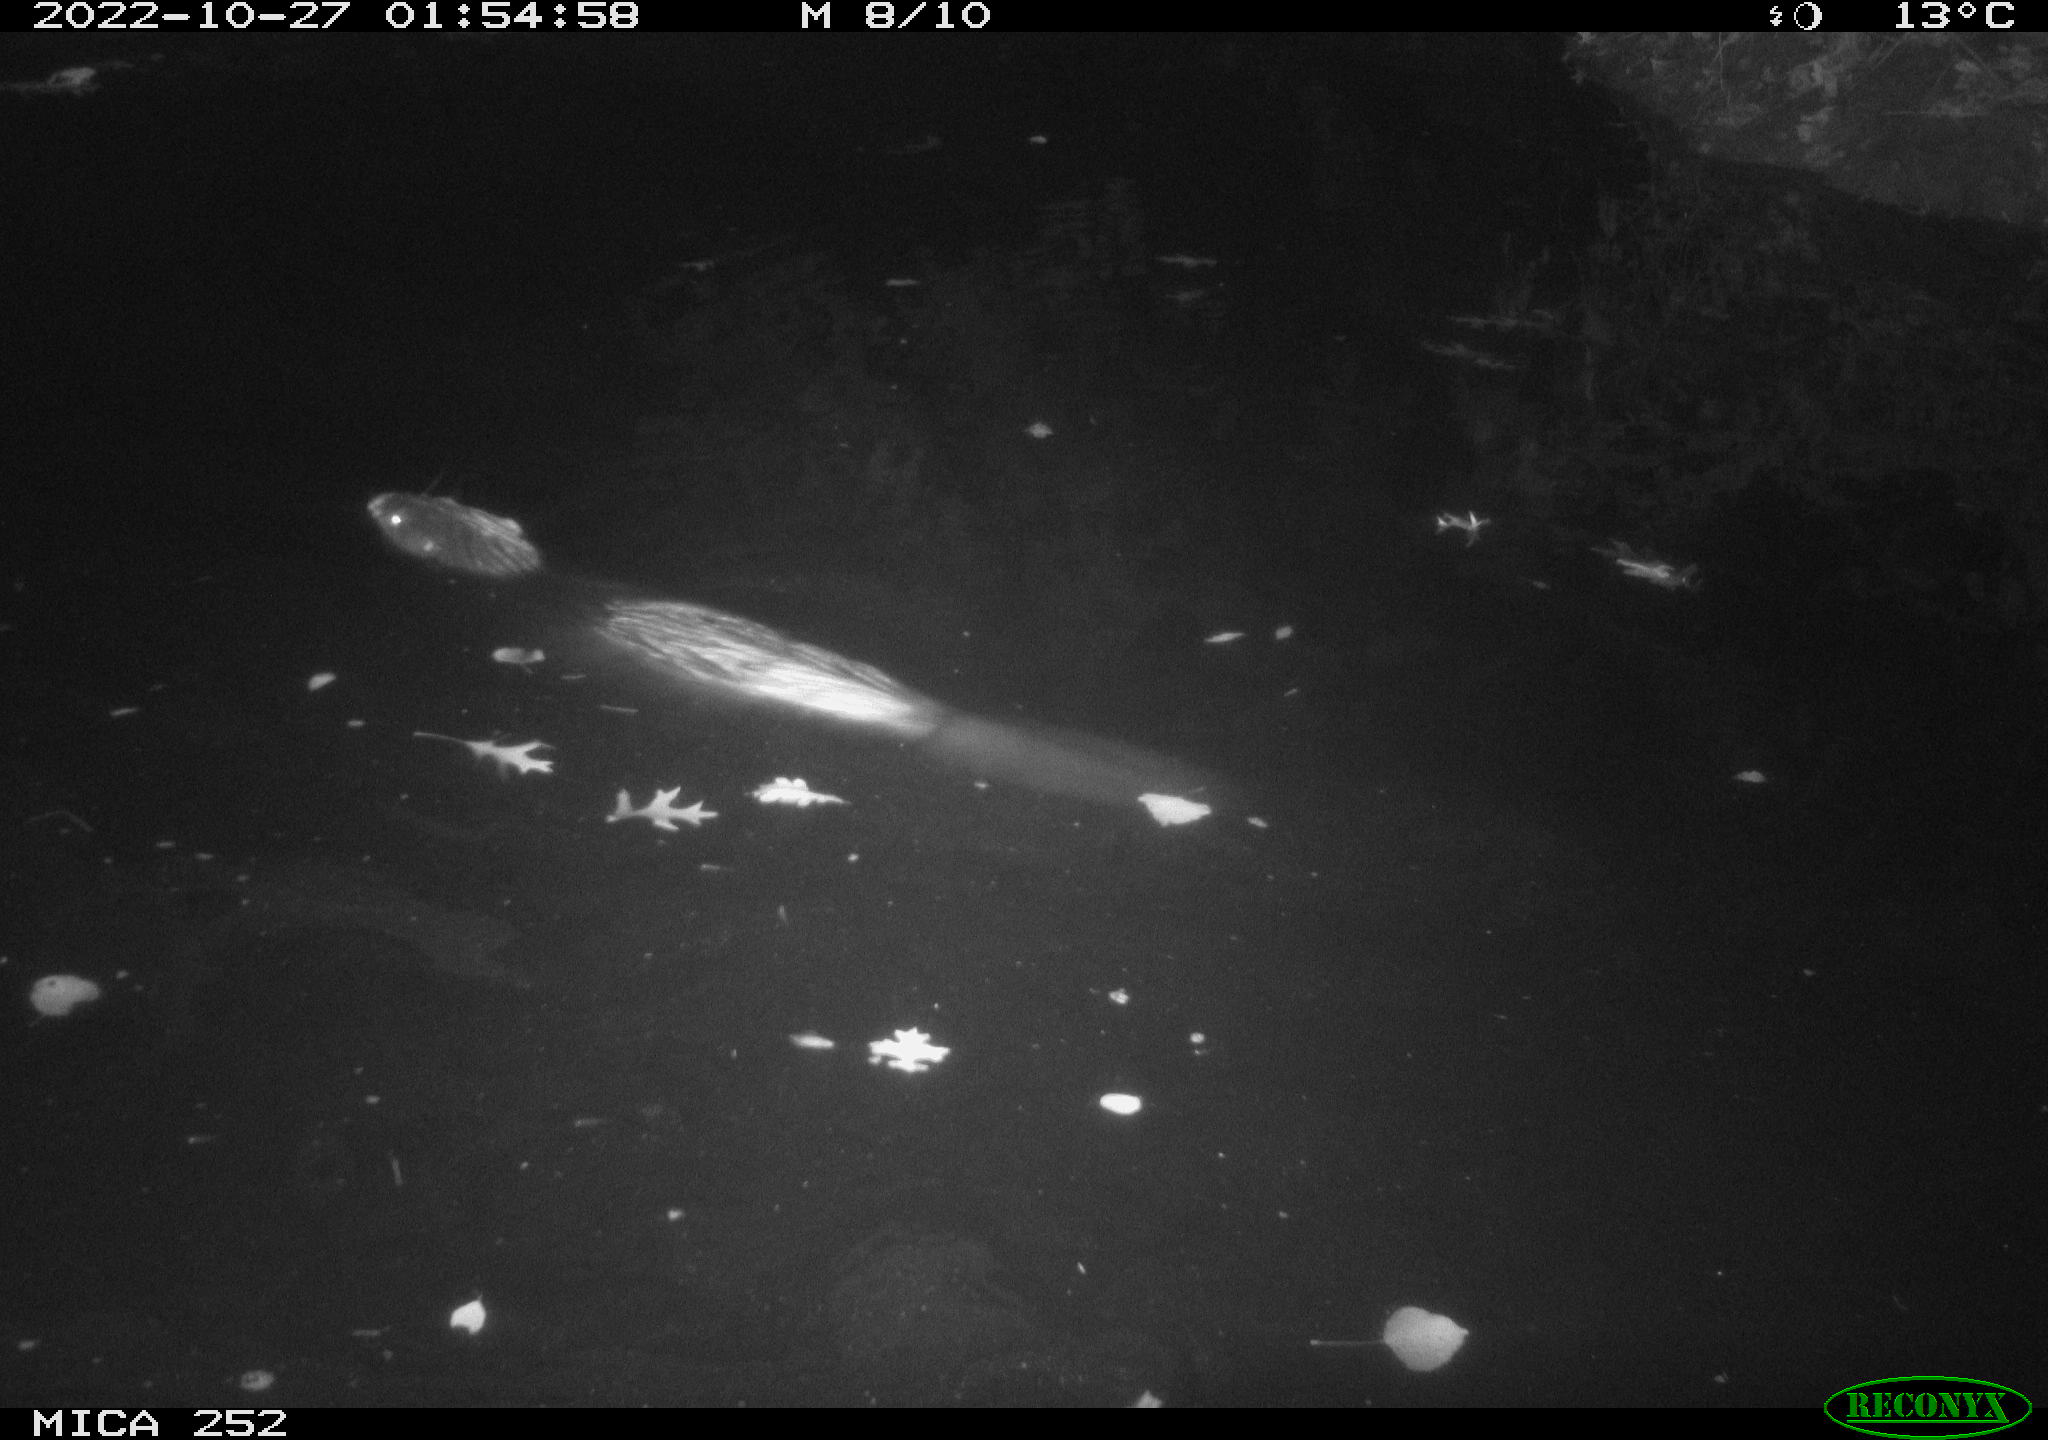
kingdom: Animalia
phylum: Chordata
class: Mammalia
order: Rodentia
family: Castoridae
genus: Castor
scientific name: Castor fiber
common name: Eurasian beaver
